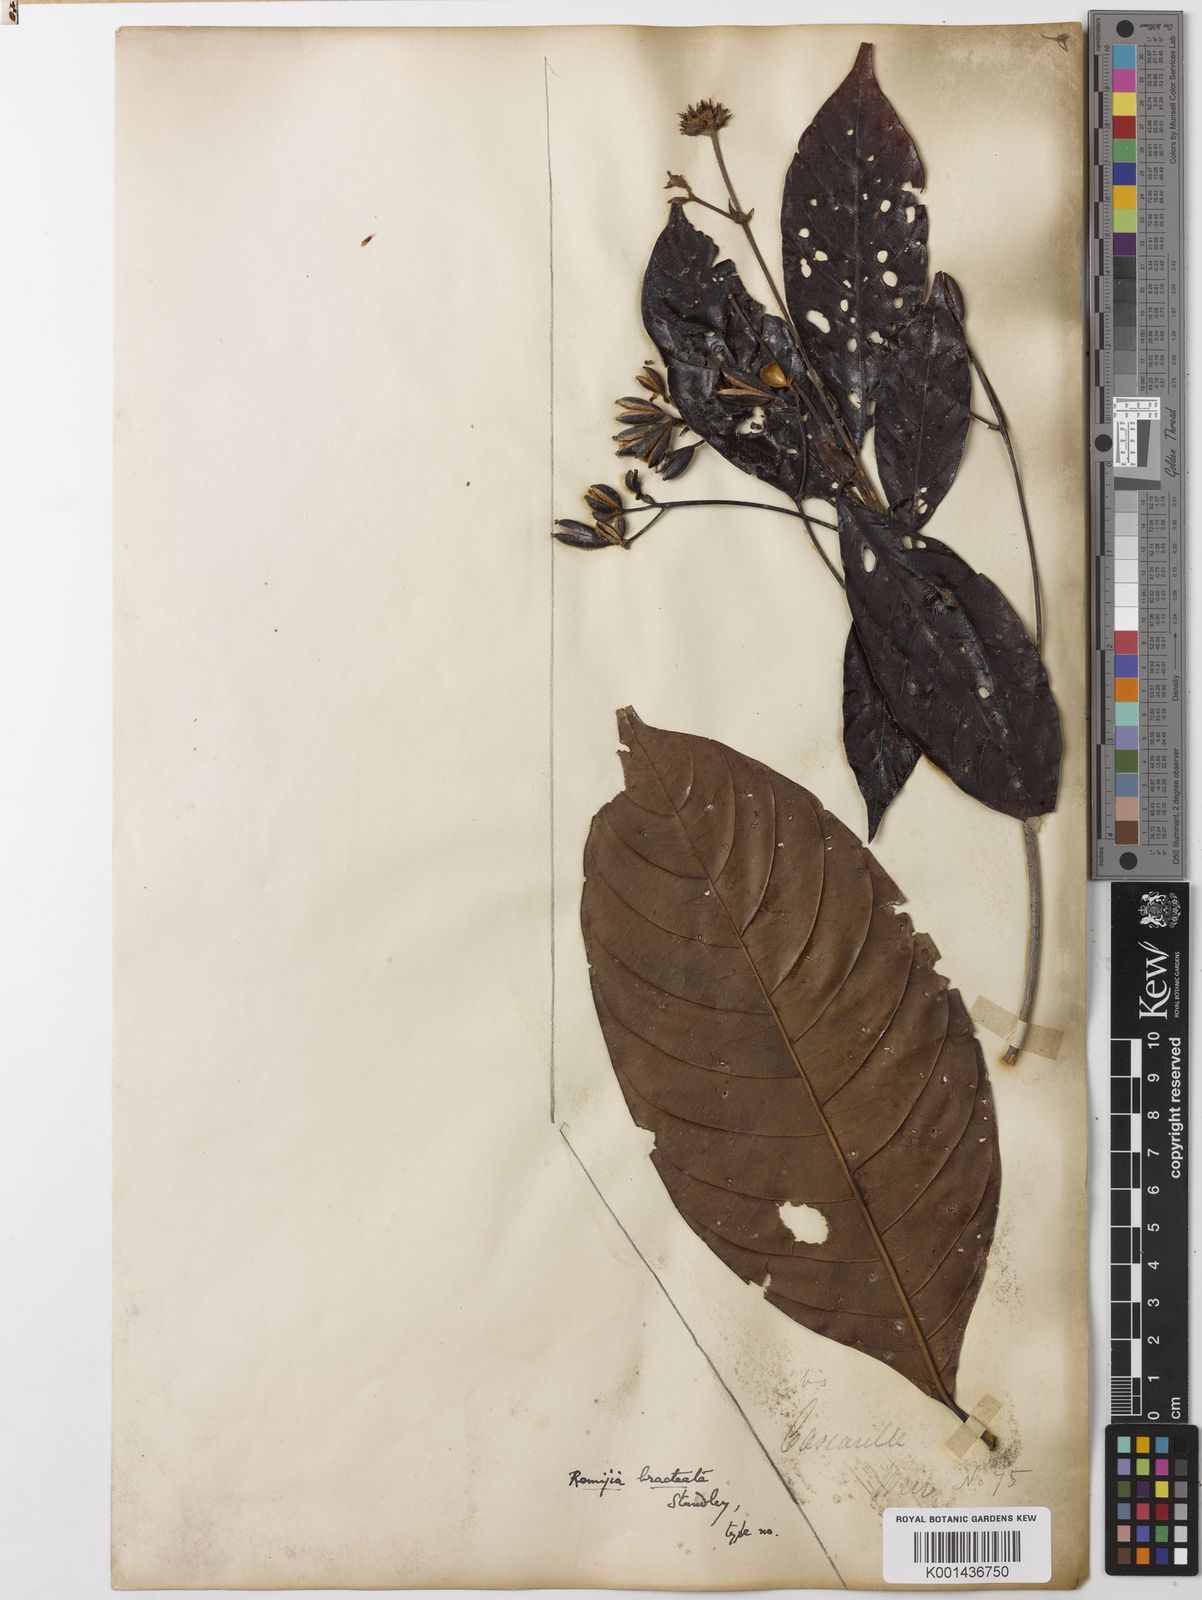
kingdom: Plantae
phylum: Tracheophyta
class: Magnoliopsida
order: Gentianales
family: Rubiaceae
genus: Ciliosemina
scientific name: Ciliosemina purdieana
